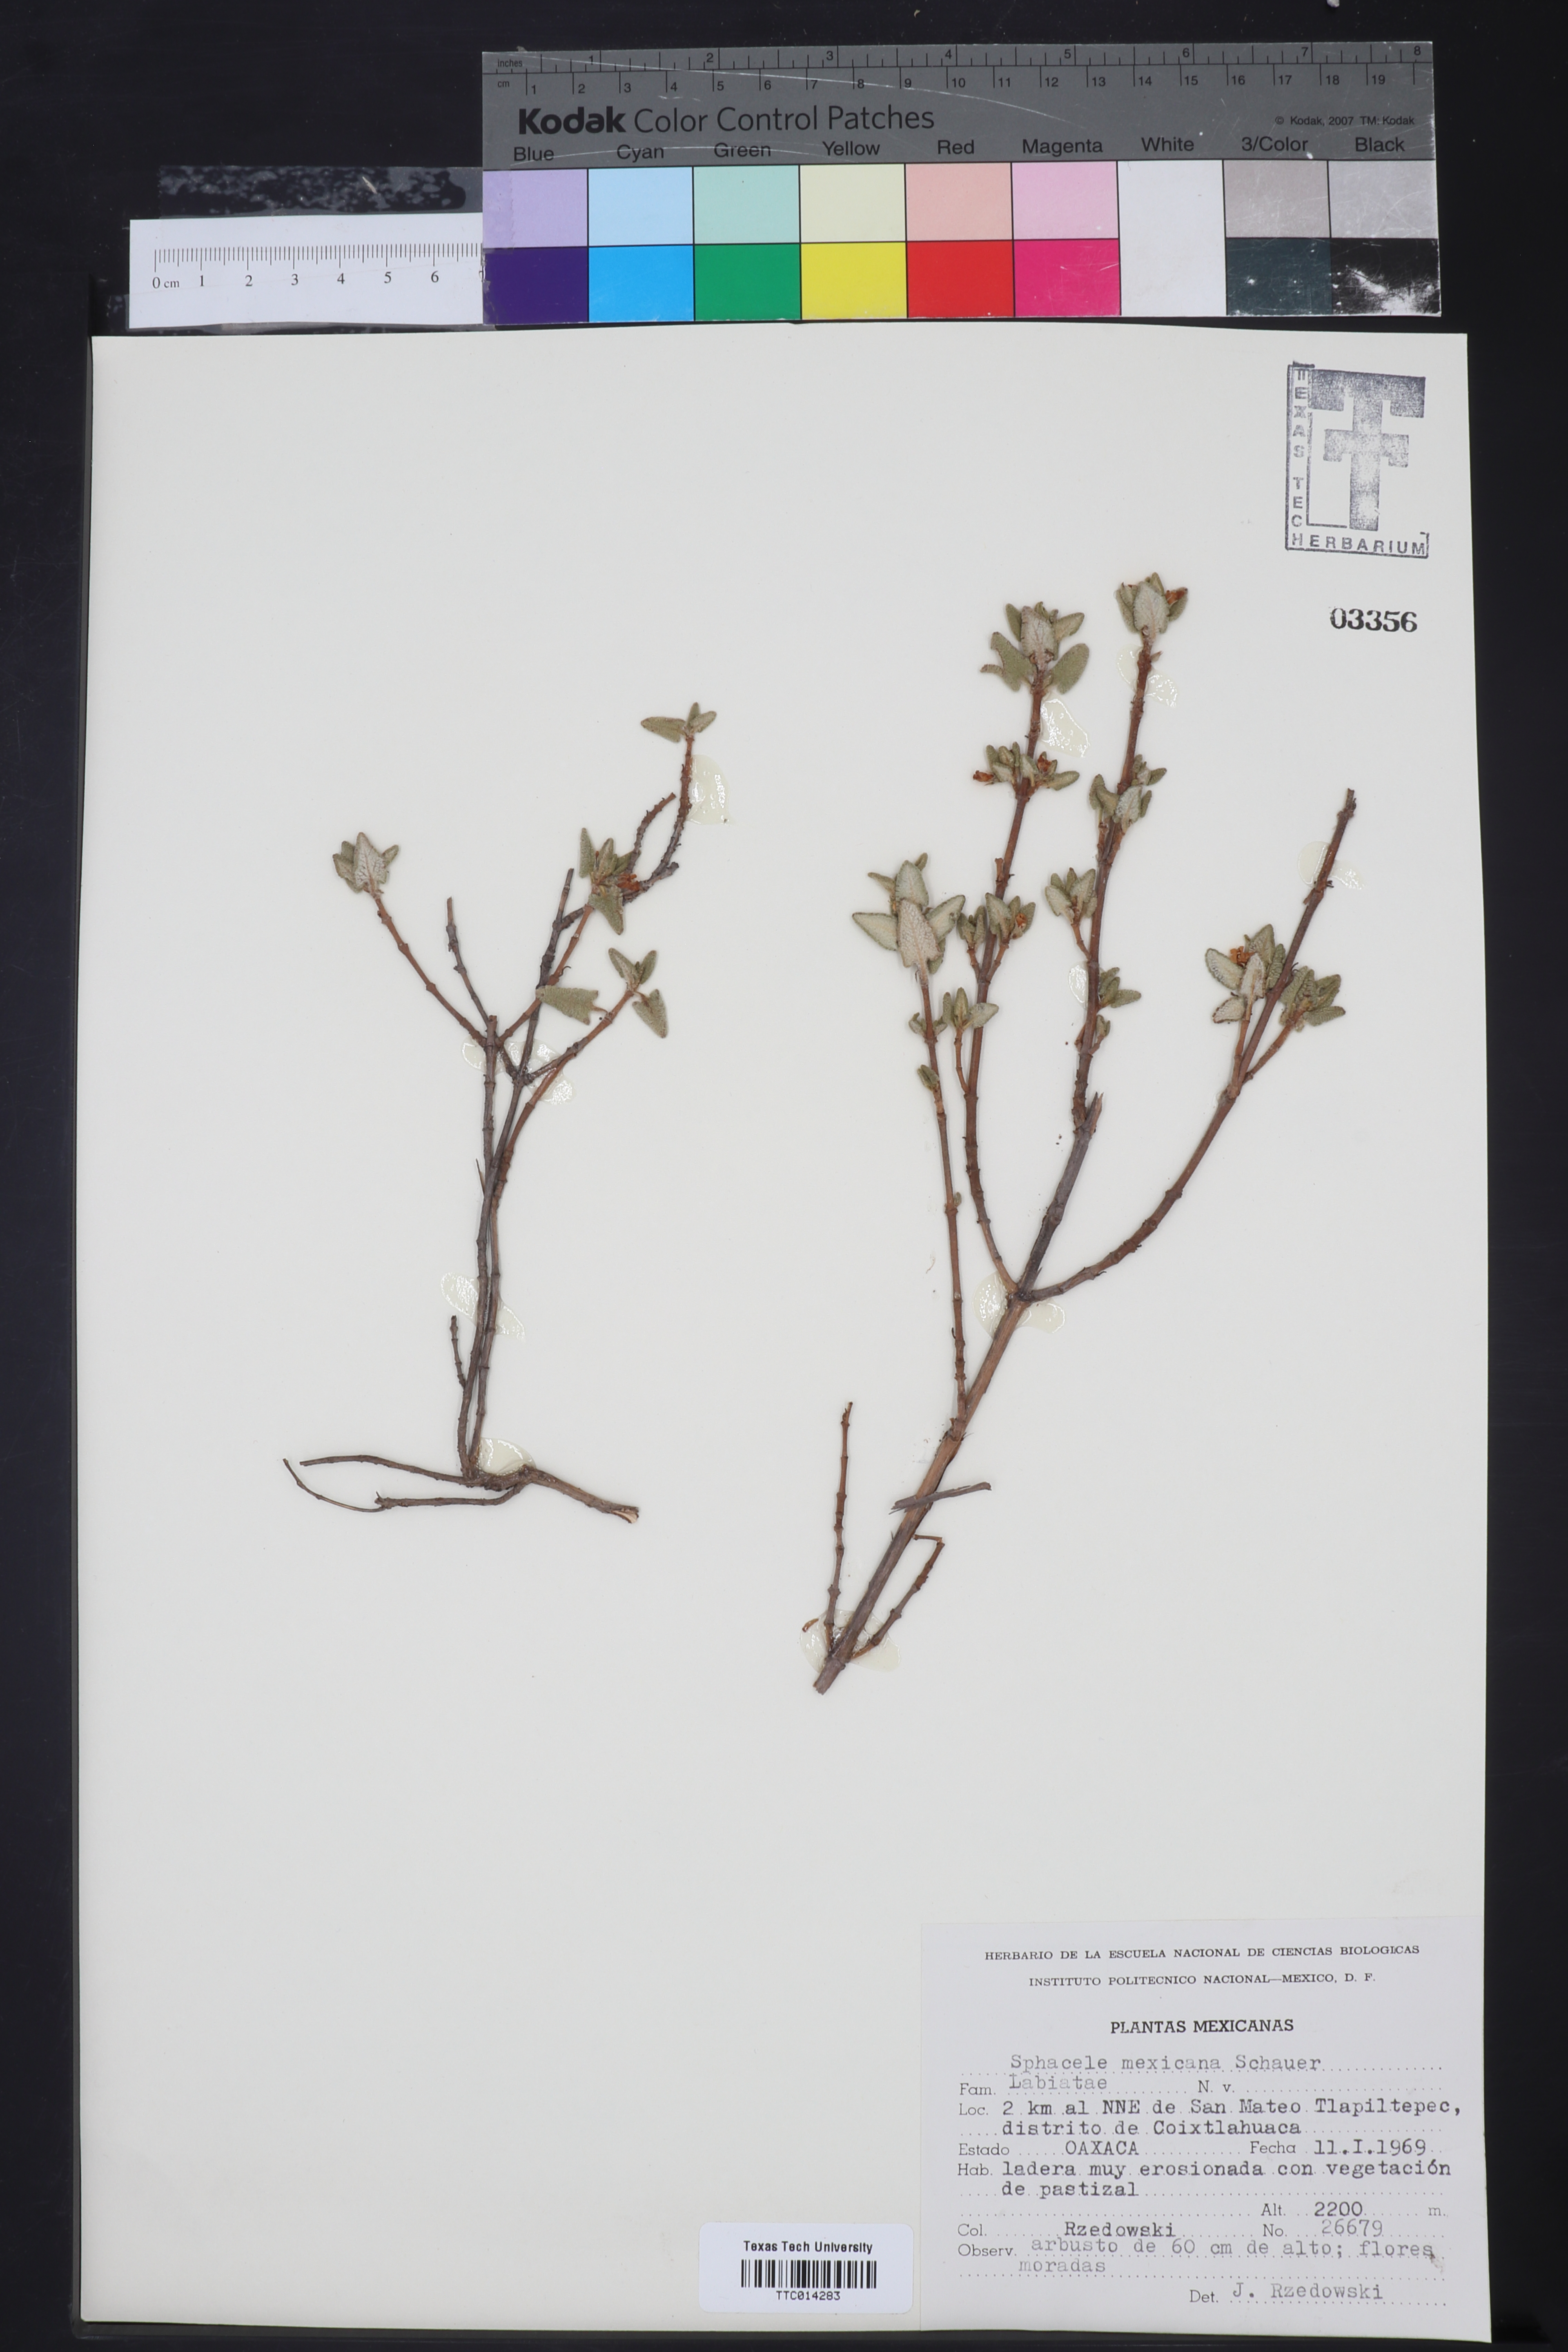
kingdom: Plantae
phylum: Tracheophyta
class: Magnoliopsida
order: Lamiales
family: Lamiaceae
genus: Lepechinia
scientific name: Lepechinia mexicana
